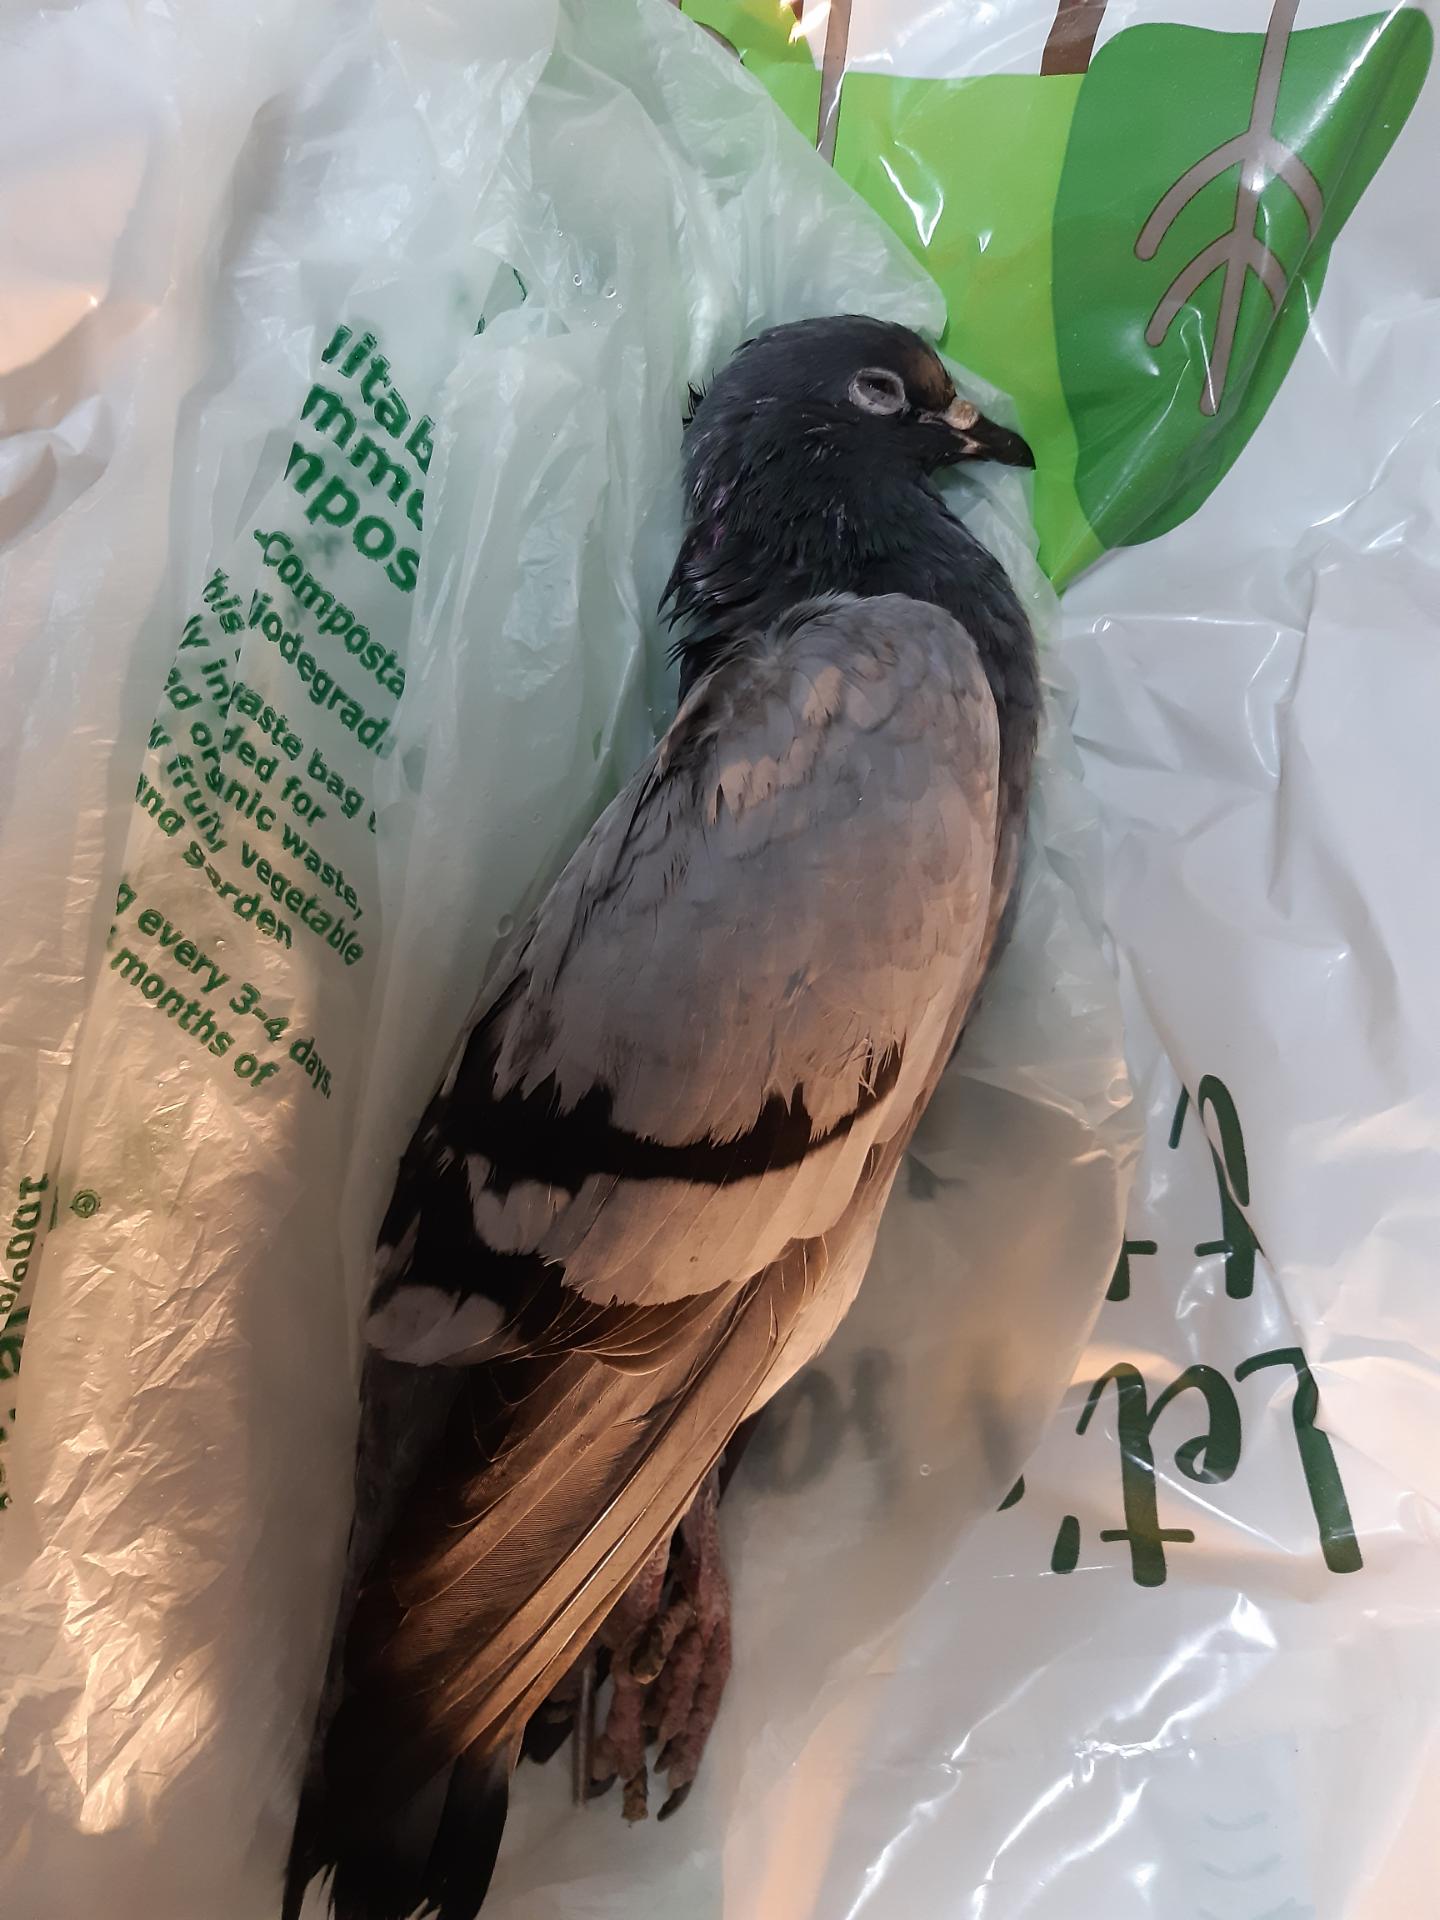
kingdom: Animalia
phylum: Chordata
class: Aves
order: Columbiformes
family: Columbidae
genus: Columba
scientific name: Columba livia
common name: Rock pigeon
